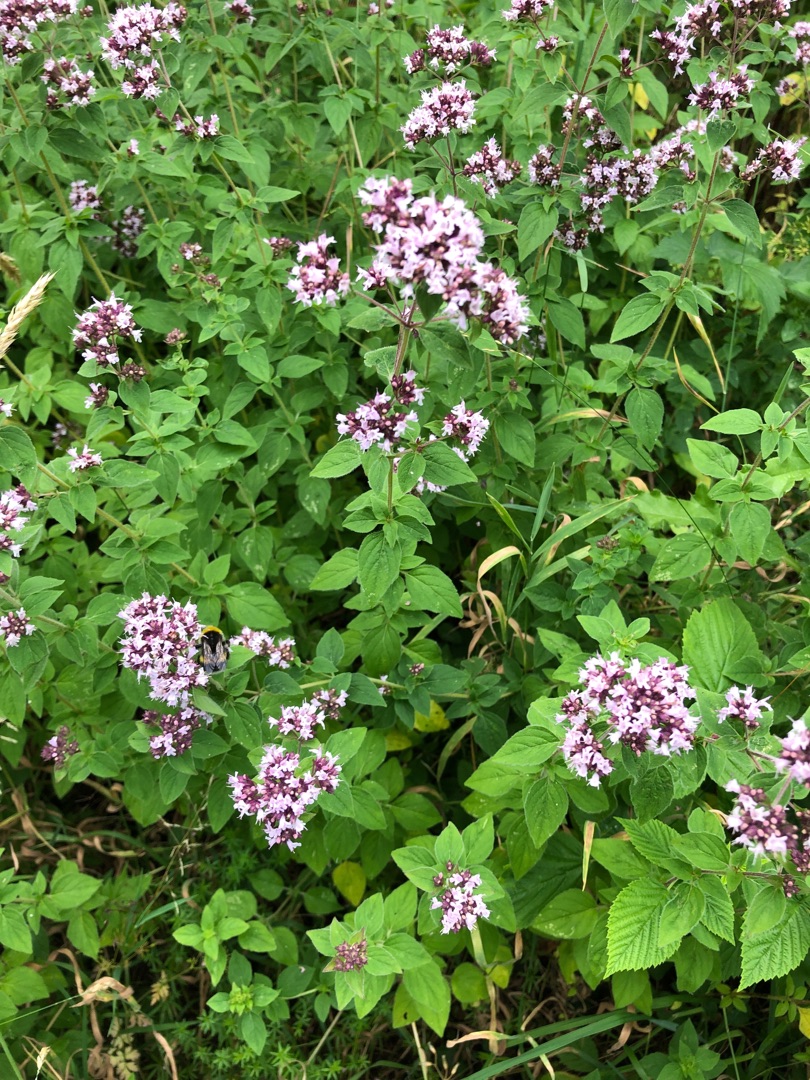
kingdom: Plantae
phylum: Tracheophyta
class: Magnoliopsida
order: Lamiales
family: Lamiaceae
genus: Origanum
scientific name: Origanum vulgare
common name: Merian
